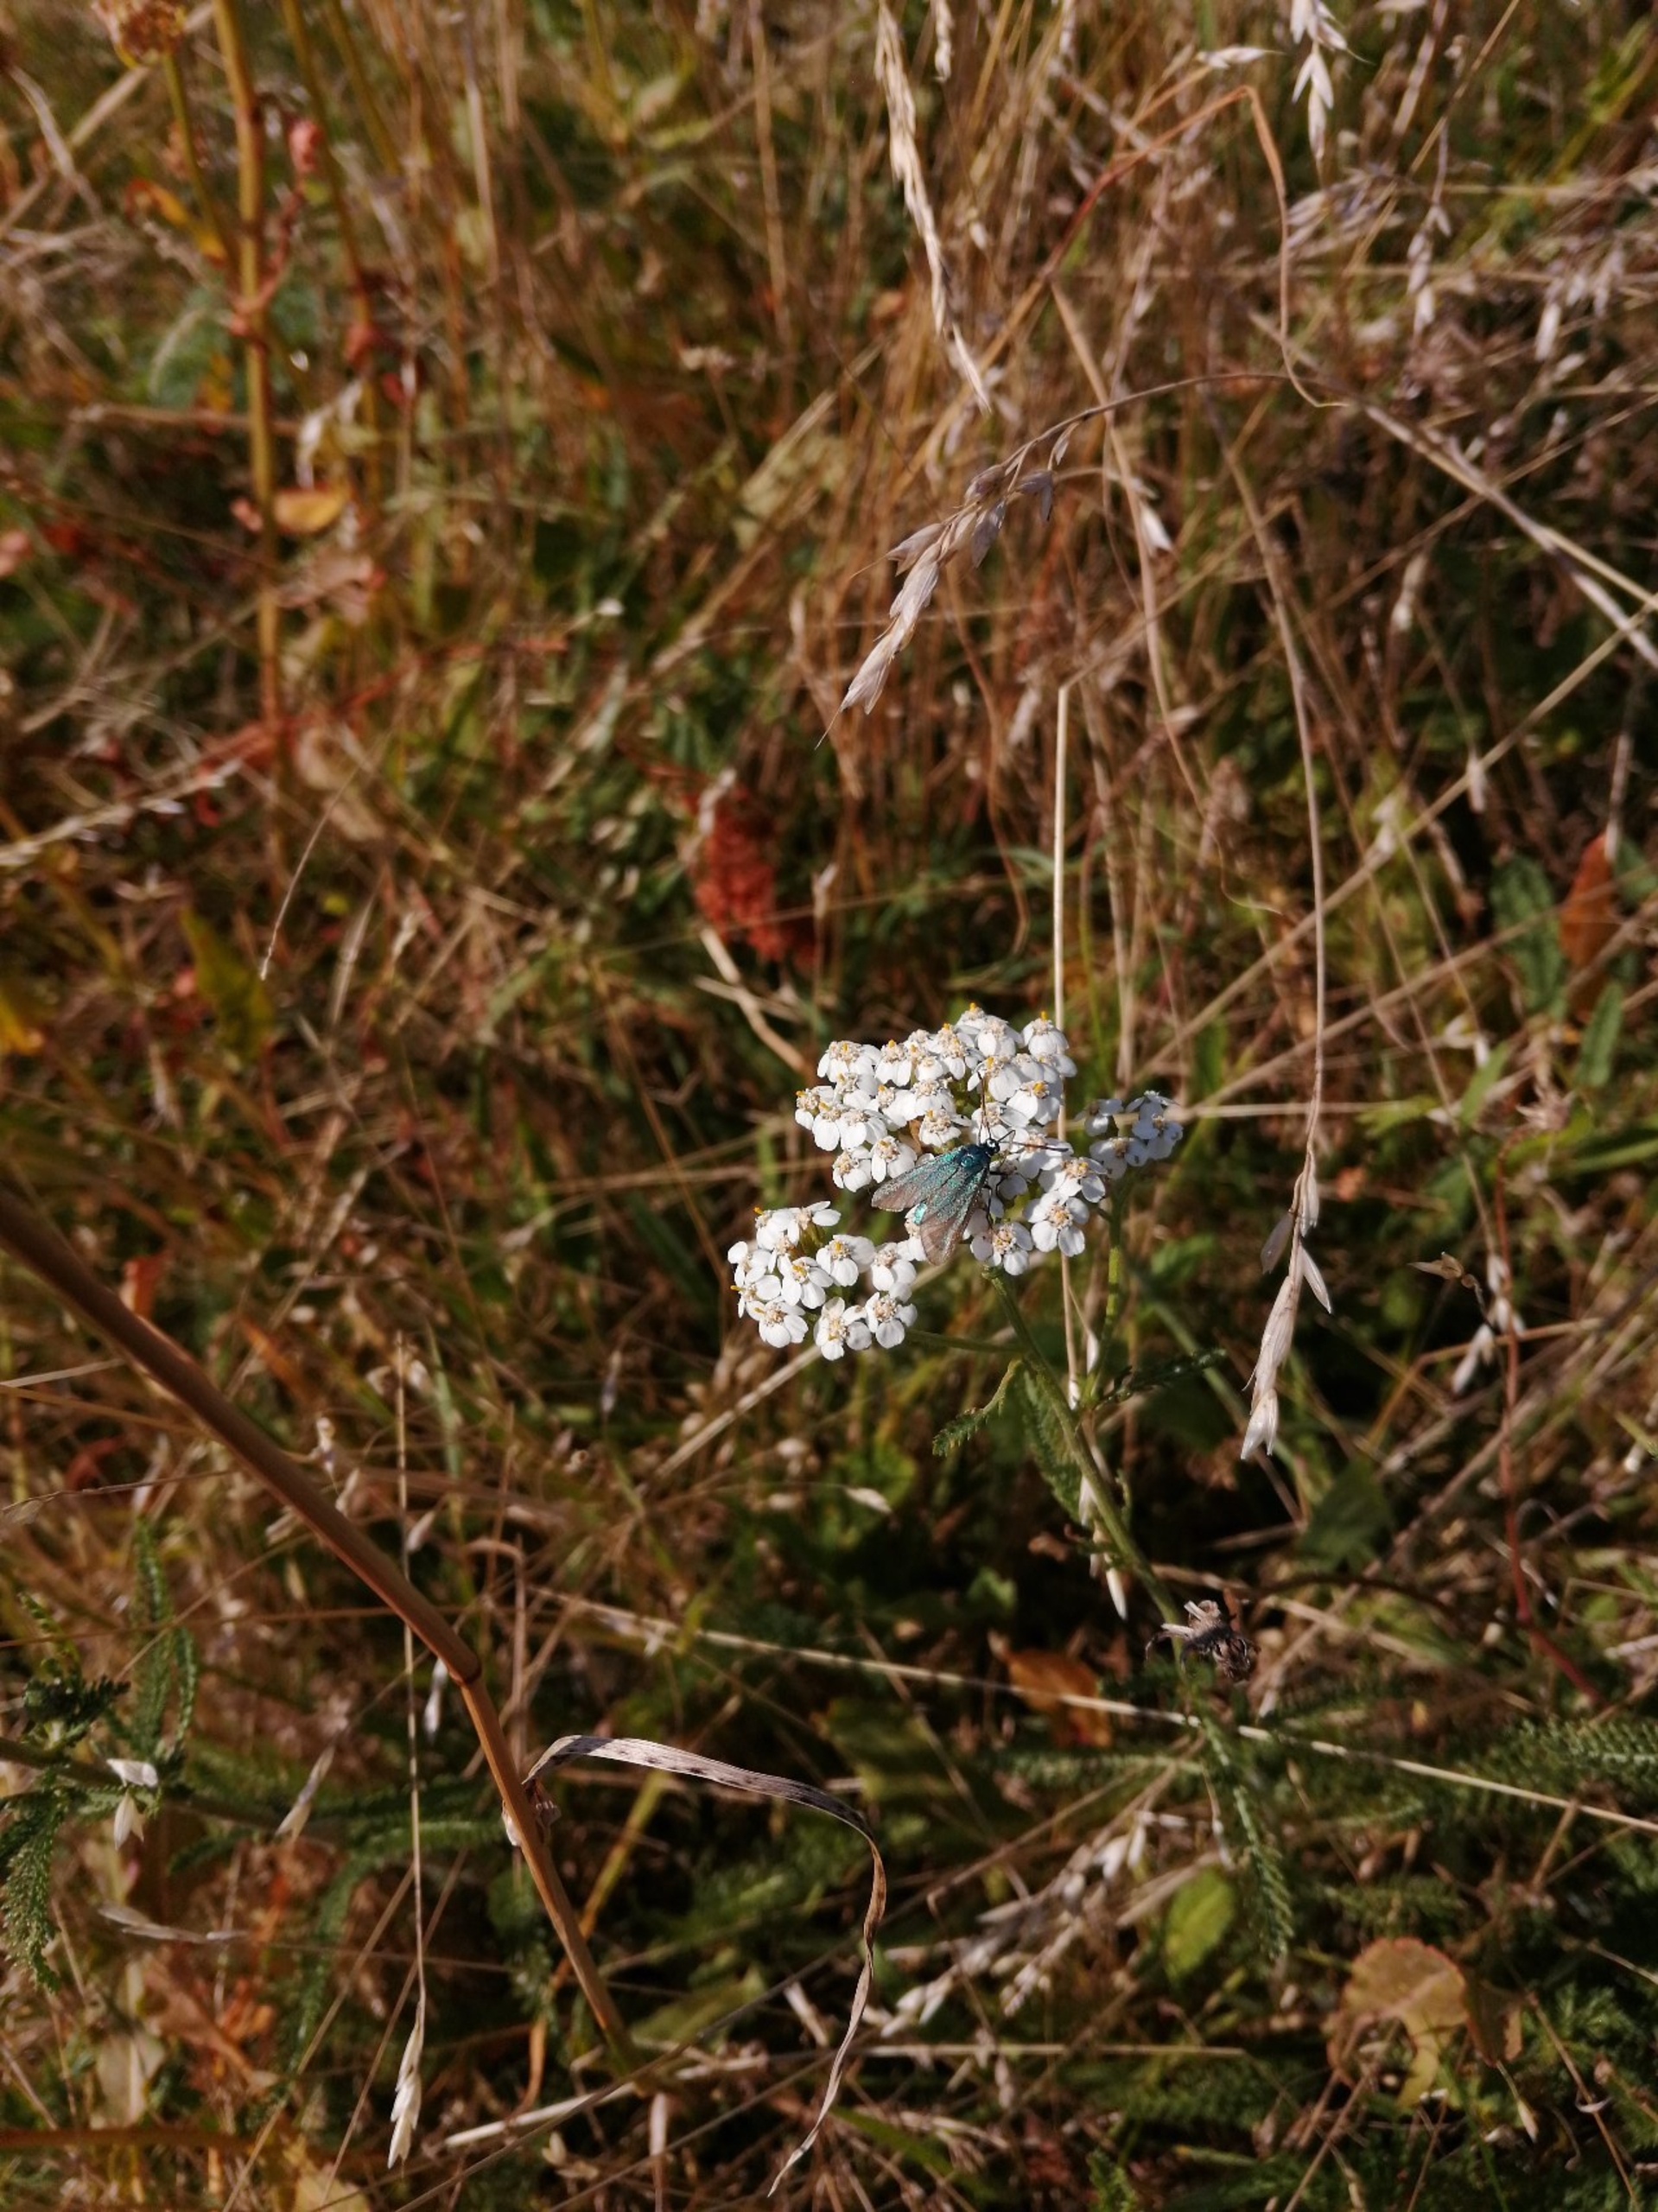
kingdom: Animalia
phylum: Arthropoda
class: Insecta
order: Lepidoptera
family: Zygaenidae
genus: Adscita
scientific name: Adscita statices
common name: Metalvinge
